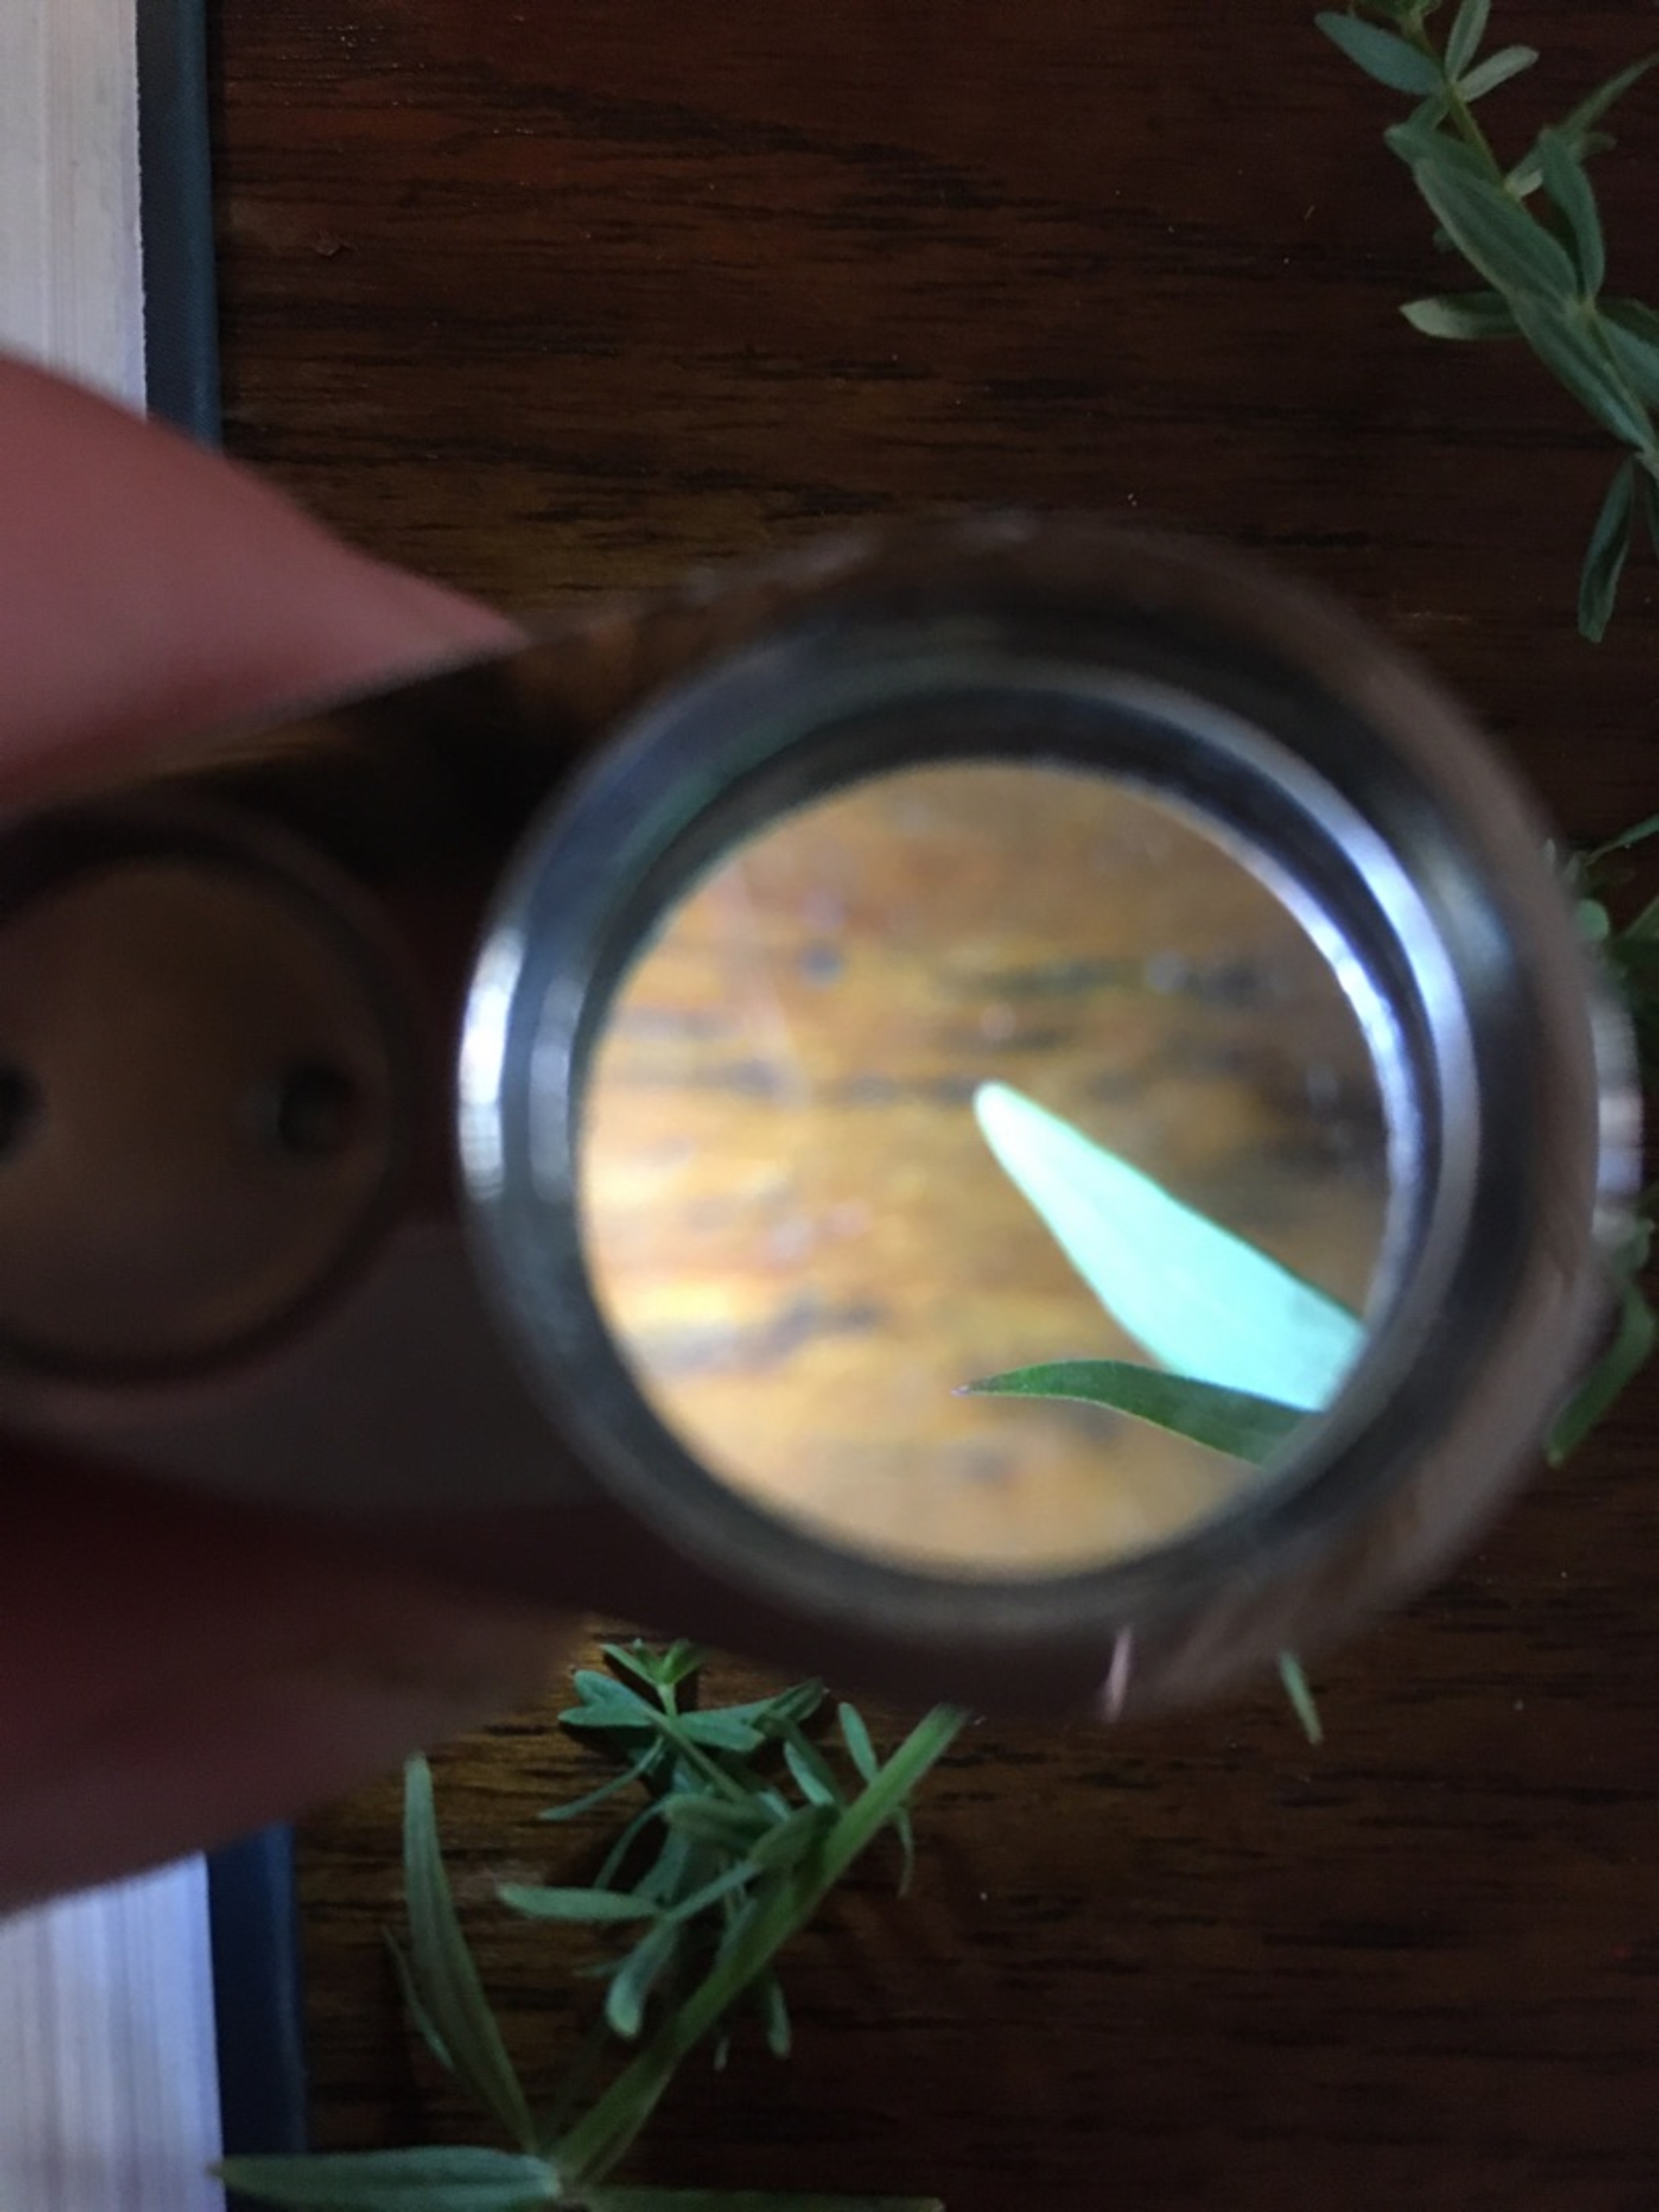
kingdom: Plantae
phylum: Tracheophyta
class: Magnoliopsida
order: Gentianales
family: Rubiaceae
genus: Galium
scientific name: Galium boreale
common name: Trenervet snerre
